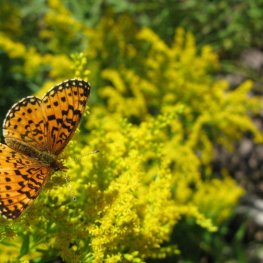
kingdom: Animalia
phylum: Arthropoda
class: Insecta
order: Lepidoptera
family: Nymphalidae
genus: Boloria
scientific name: Boloria selene
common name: Silver-bordered Fritillary
